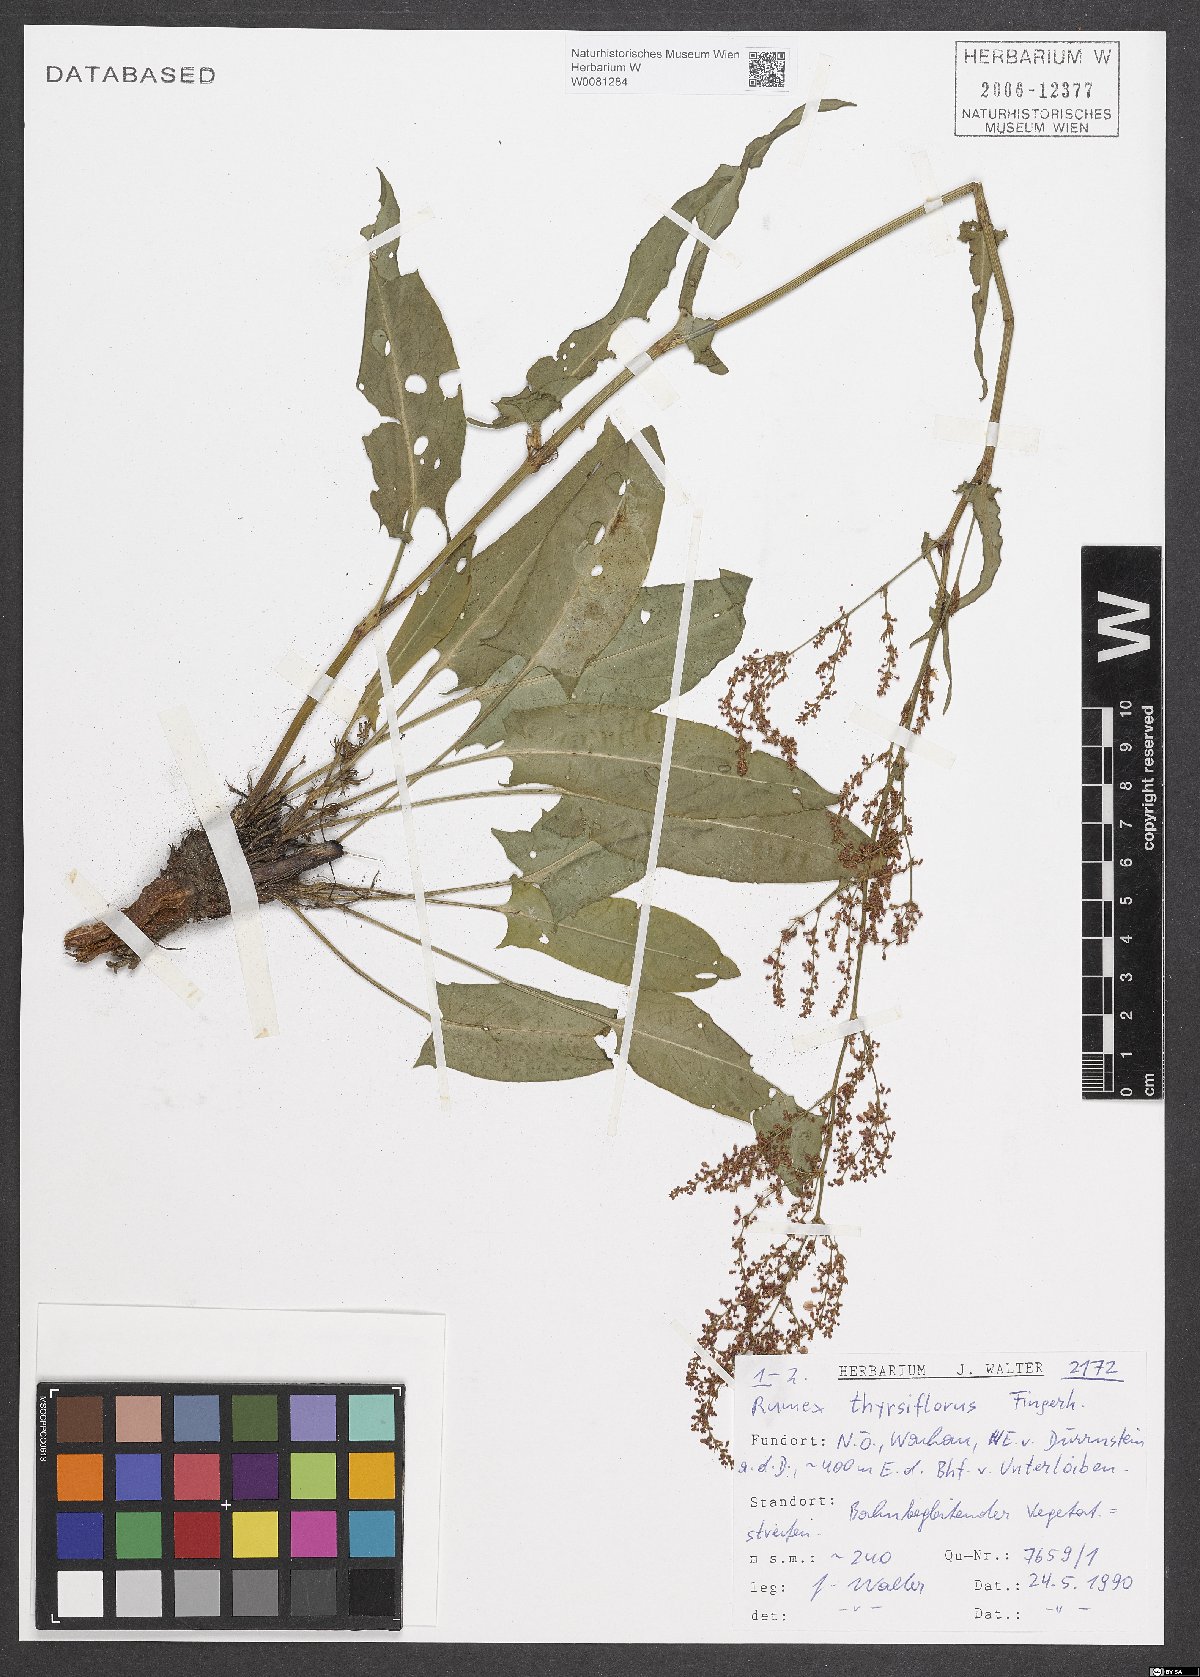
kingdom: Plantae
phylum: Tracheophyta
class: Magnoliopsida
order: Caryophyllales
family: Polygonaceae
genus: Rumex
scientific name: Rumex thyrsiflorus
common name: Garden sorrel
